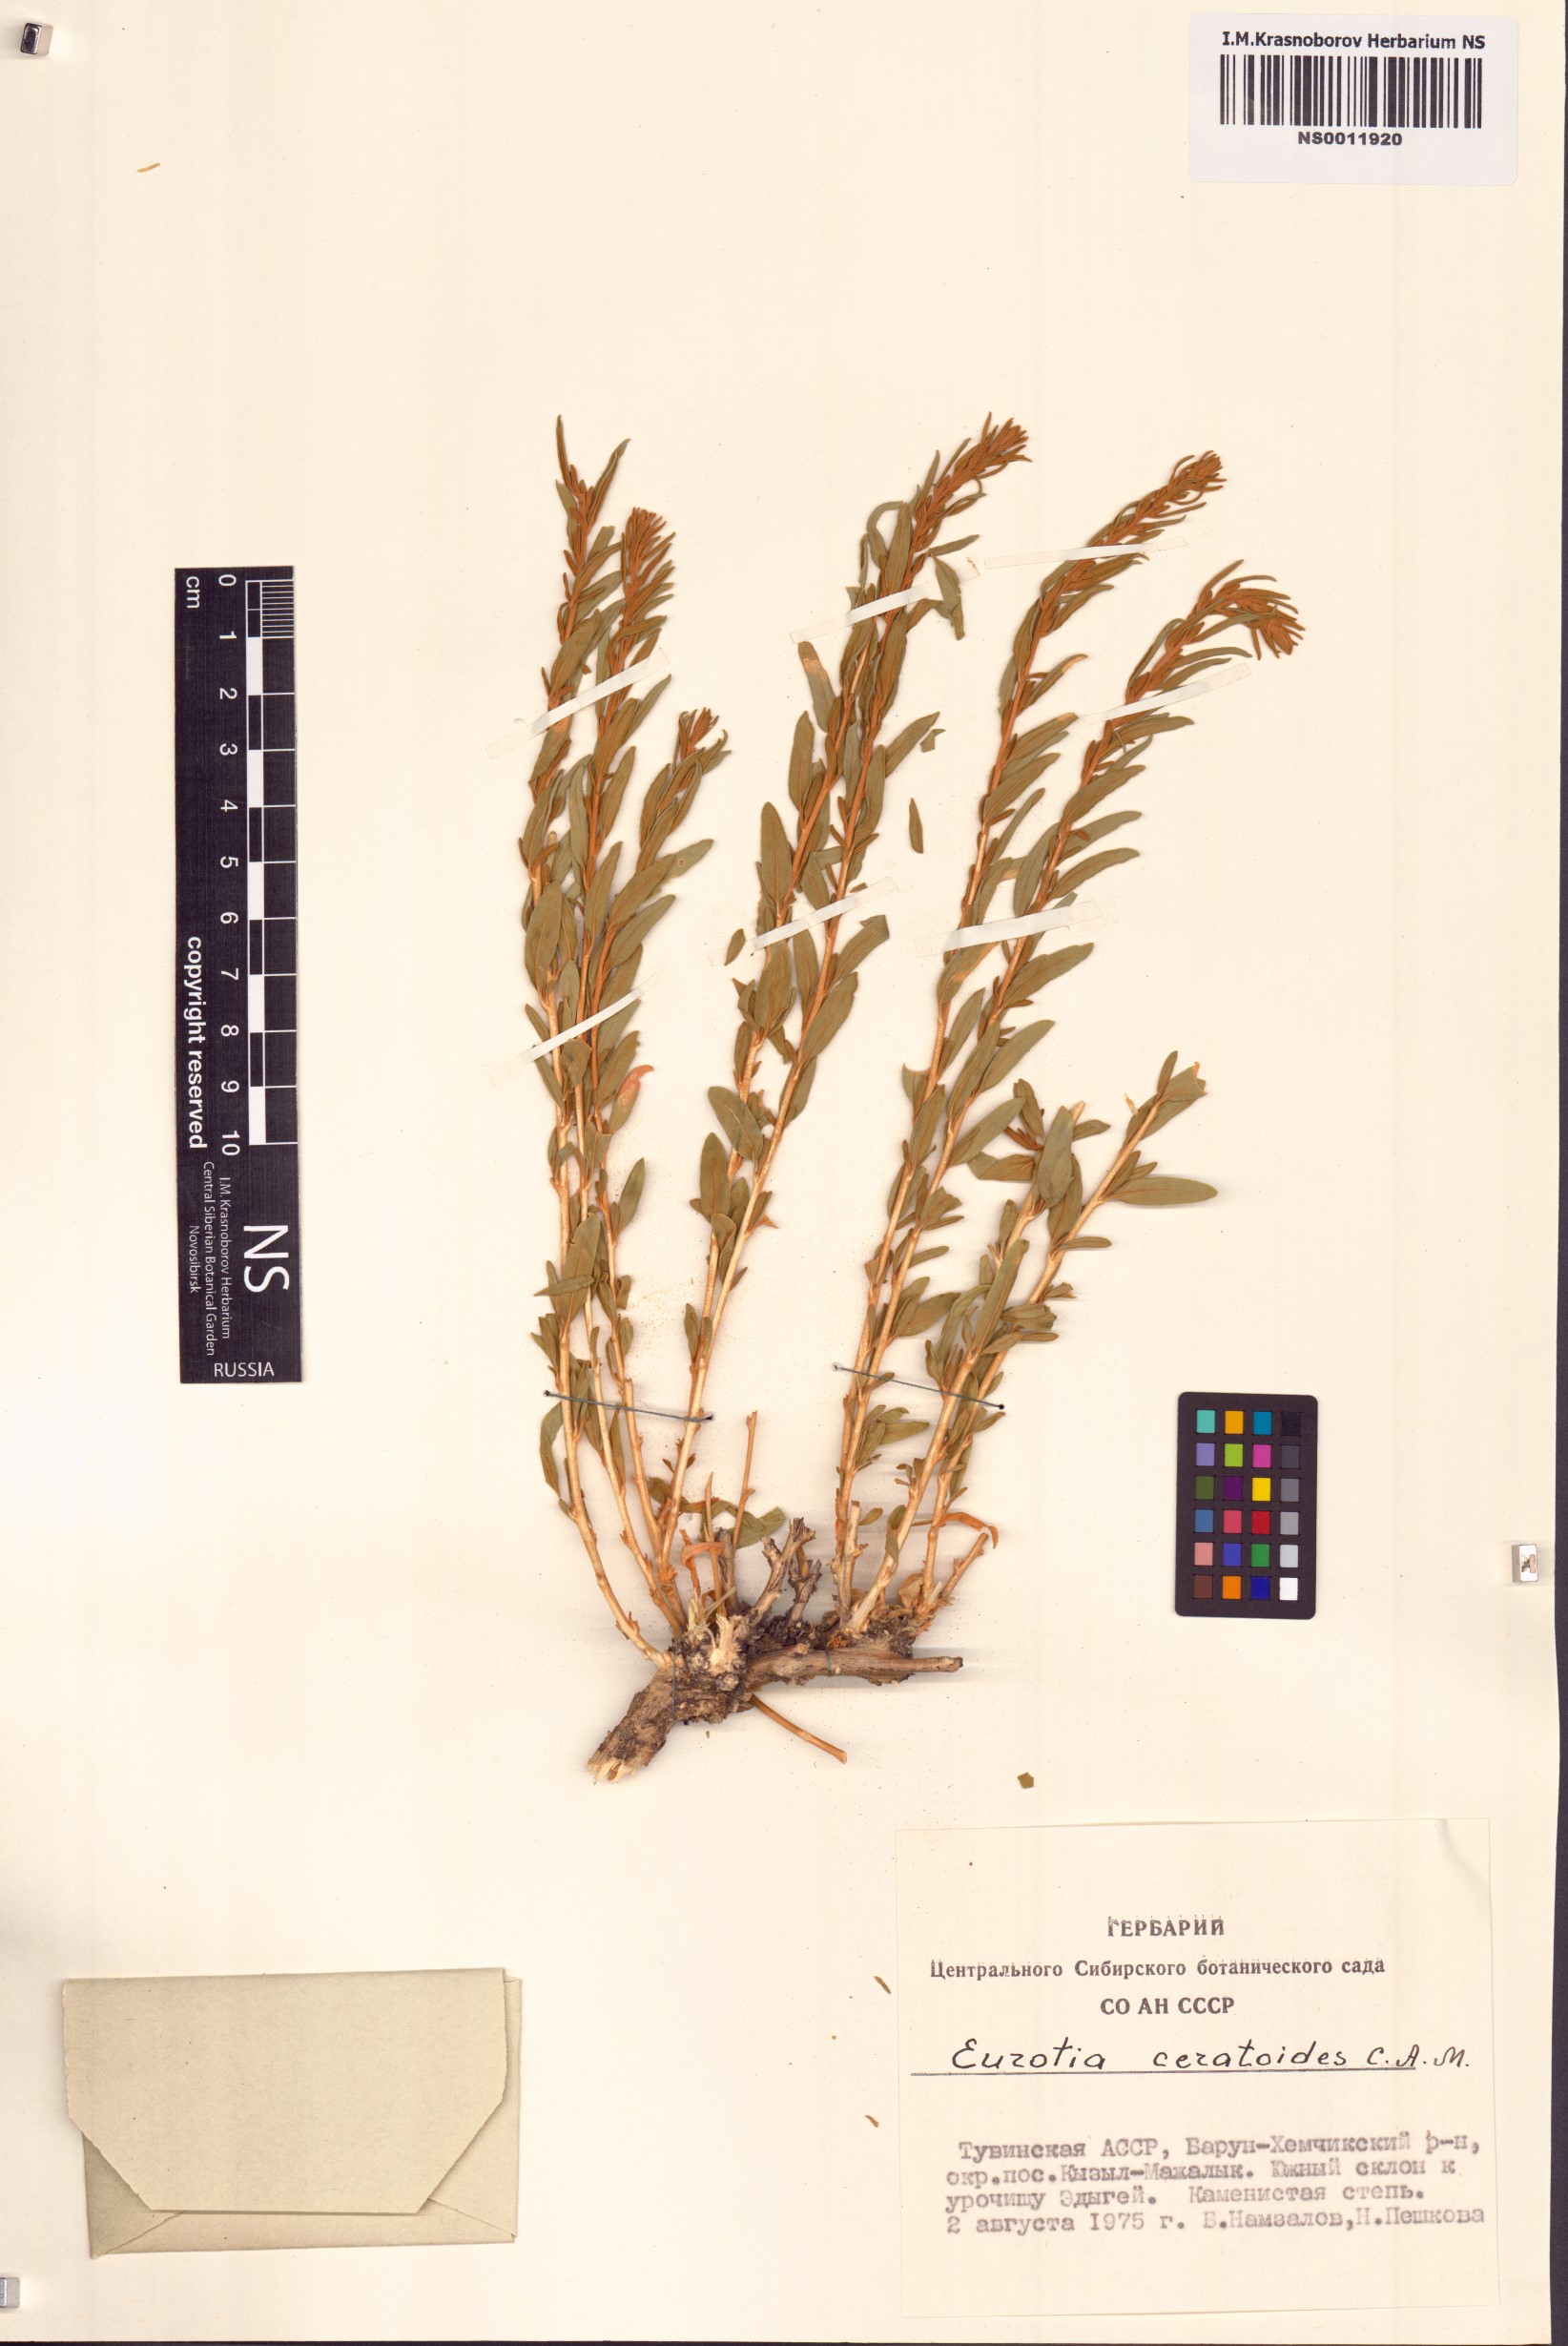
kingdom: Plantae
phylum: Tracheophyta
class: Magnoliopsida
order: Caryophyllales
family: Amaranthaceae
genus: Krascheninnikovia
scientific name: Krascheninnikovia ceratoides
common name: Pamirian winterfat
